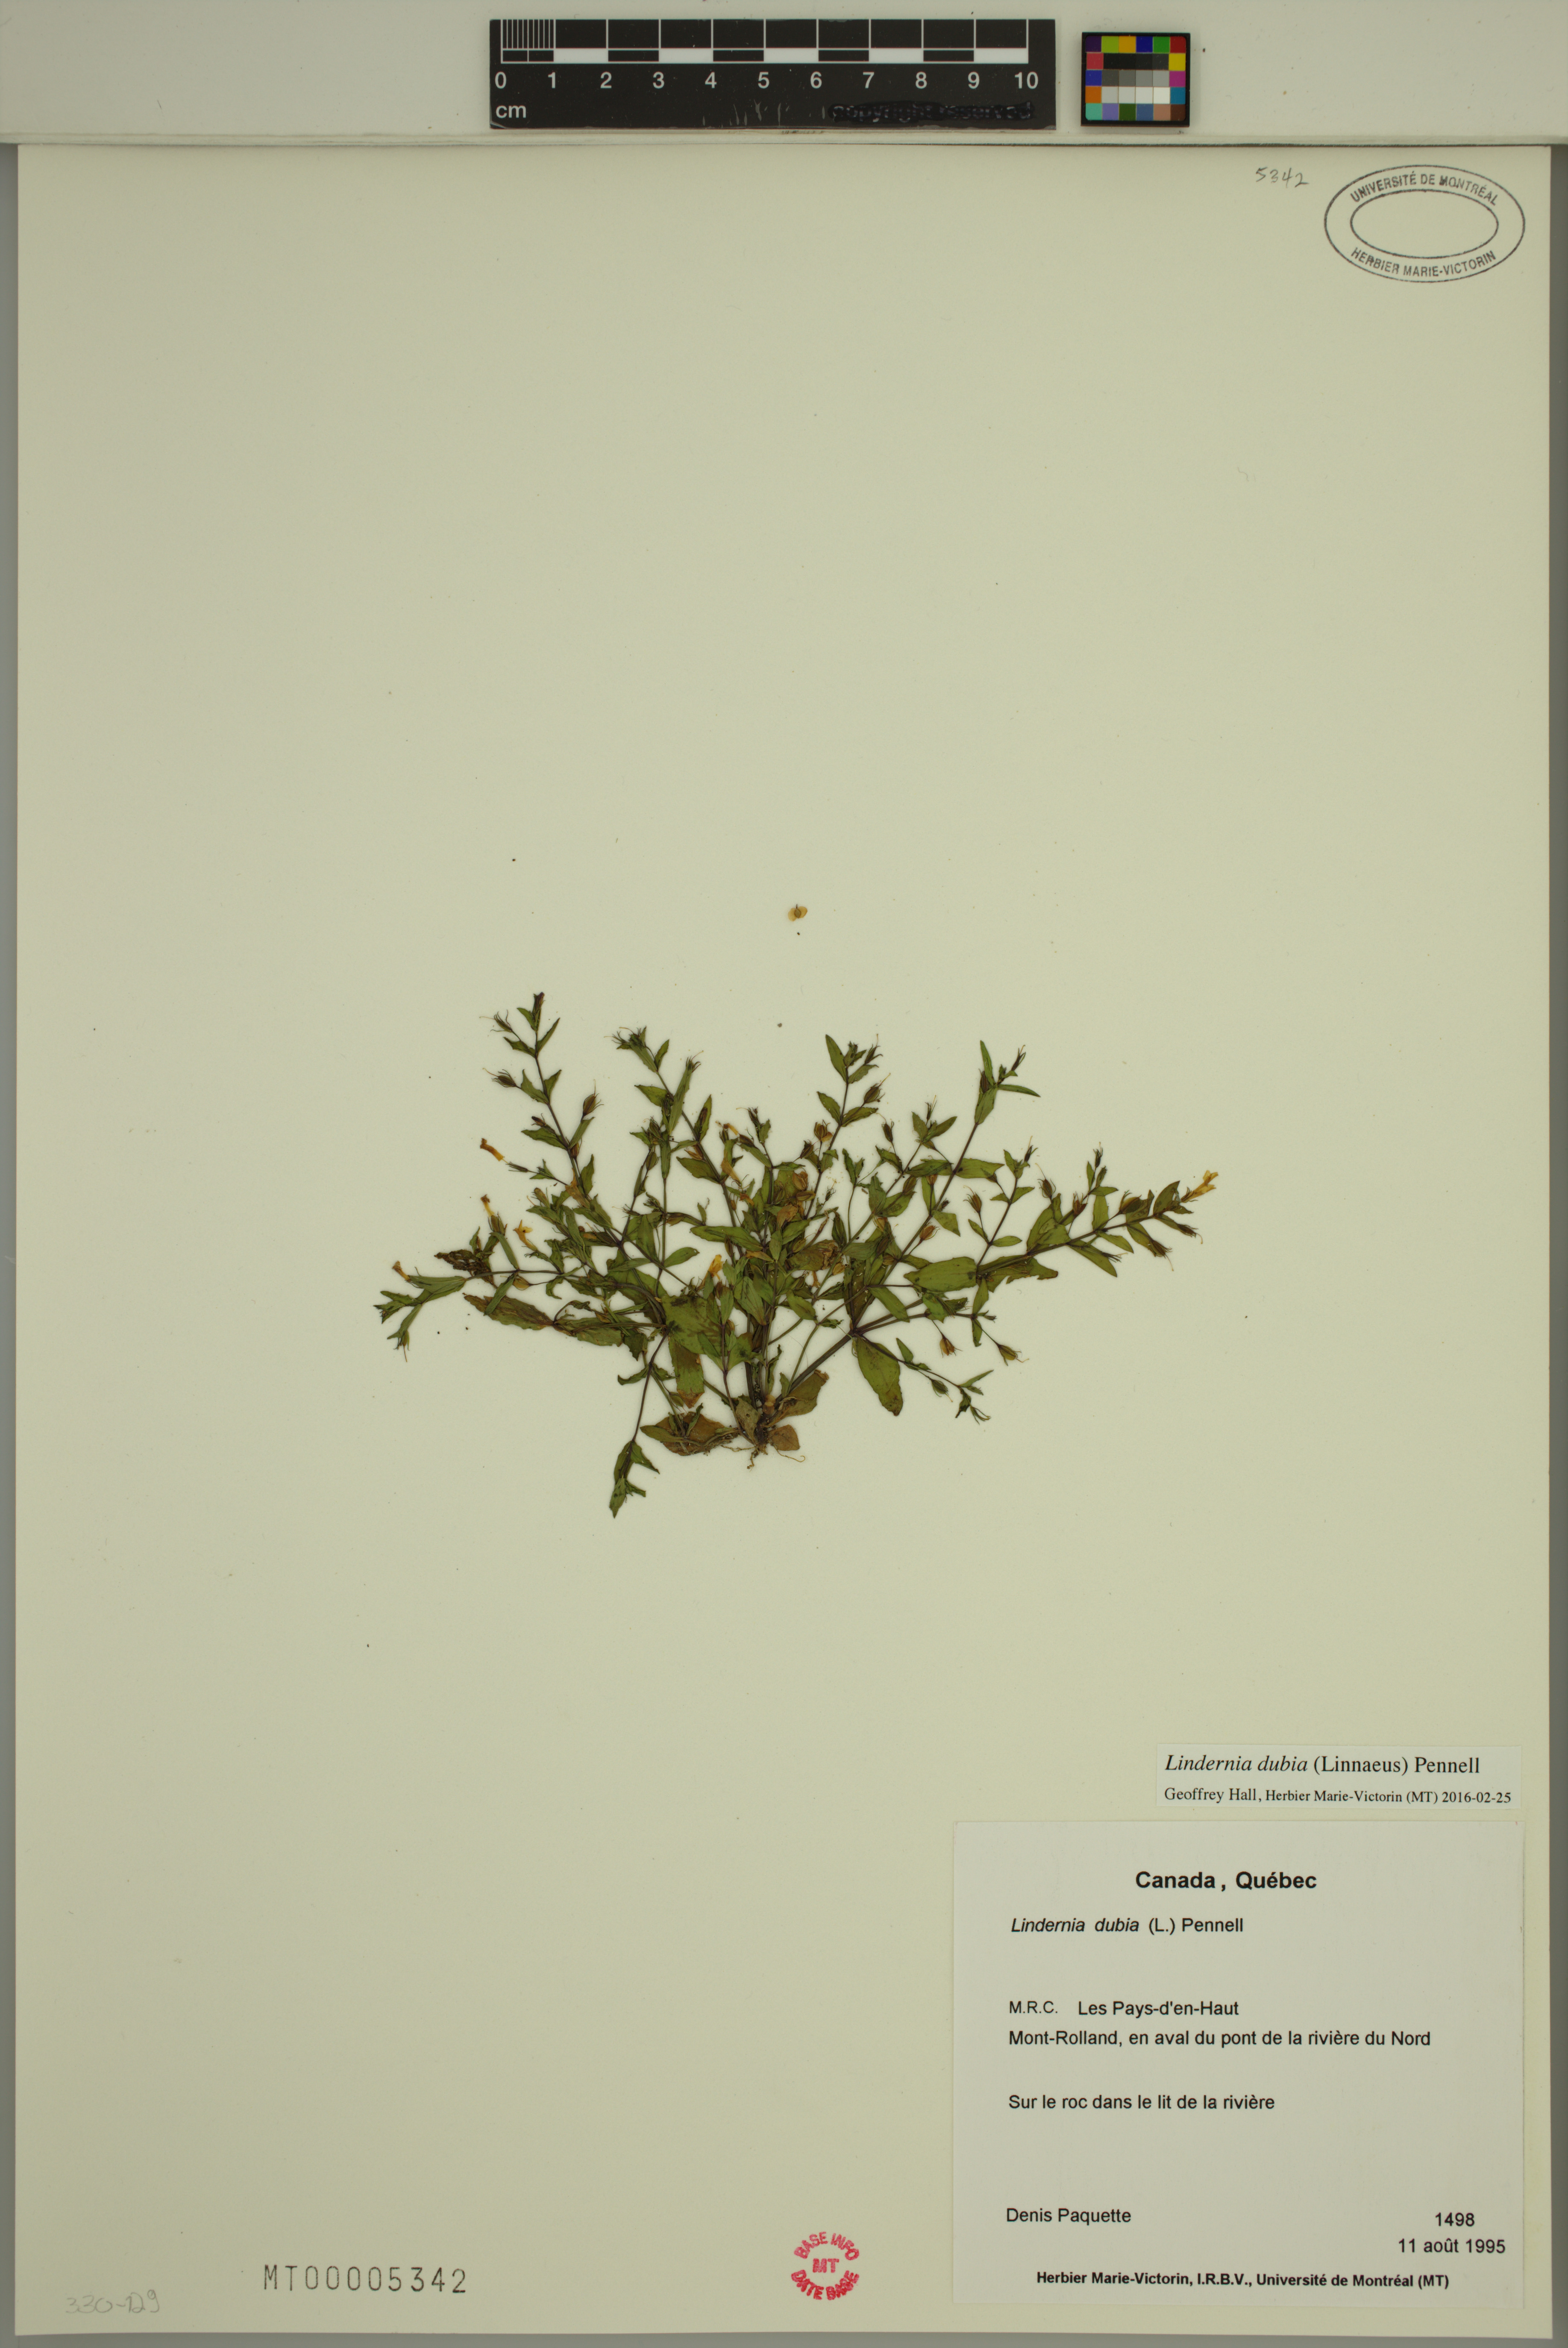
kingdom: Plantae
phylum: Tracheophyta
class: Magnoliopsida
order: Lamiales
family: Linderniaceae
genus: Lindernia
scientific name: Lindernia dubia
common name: Annual false pimpernel
